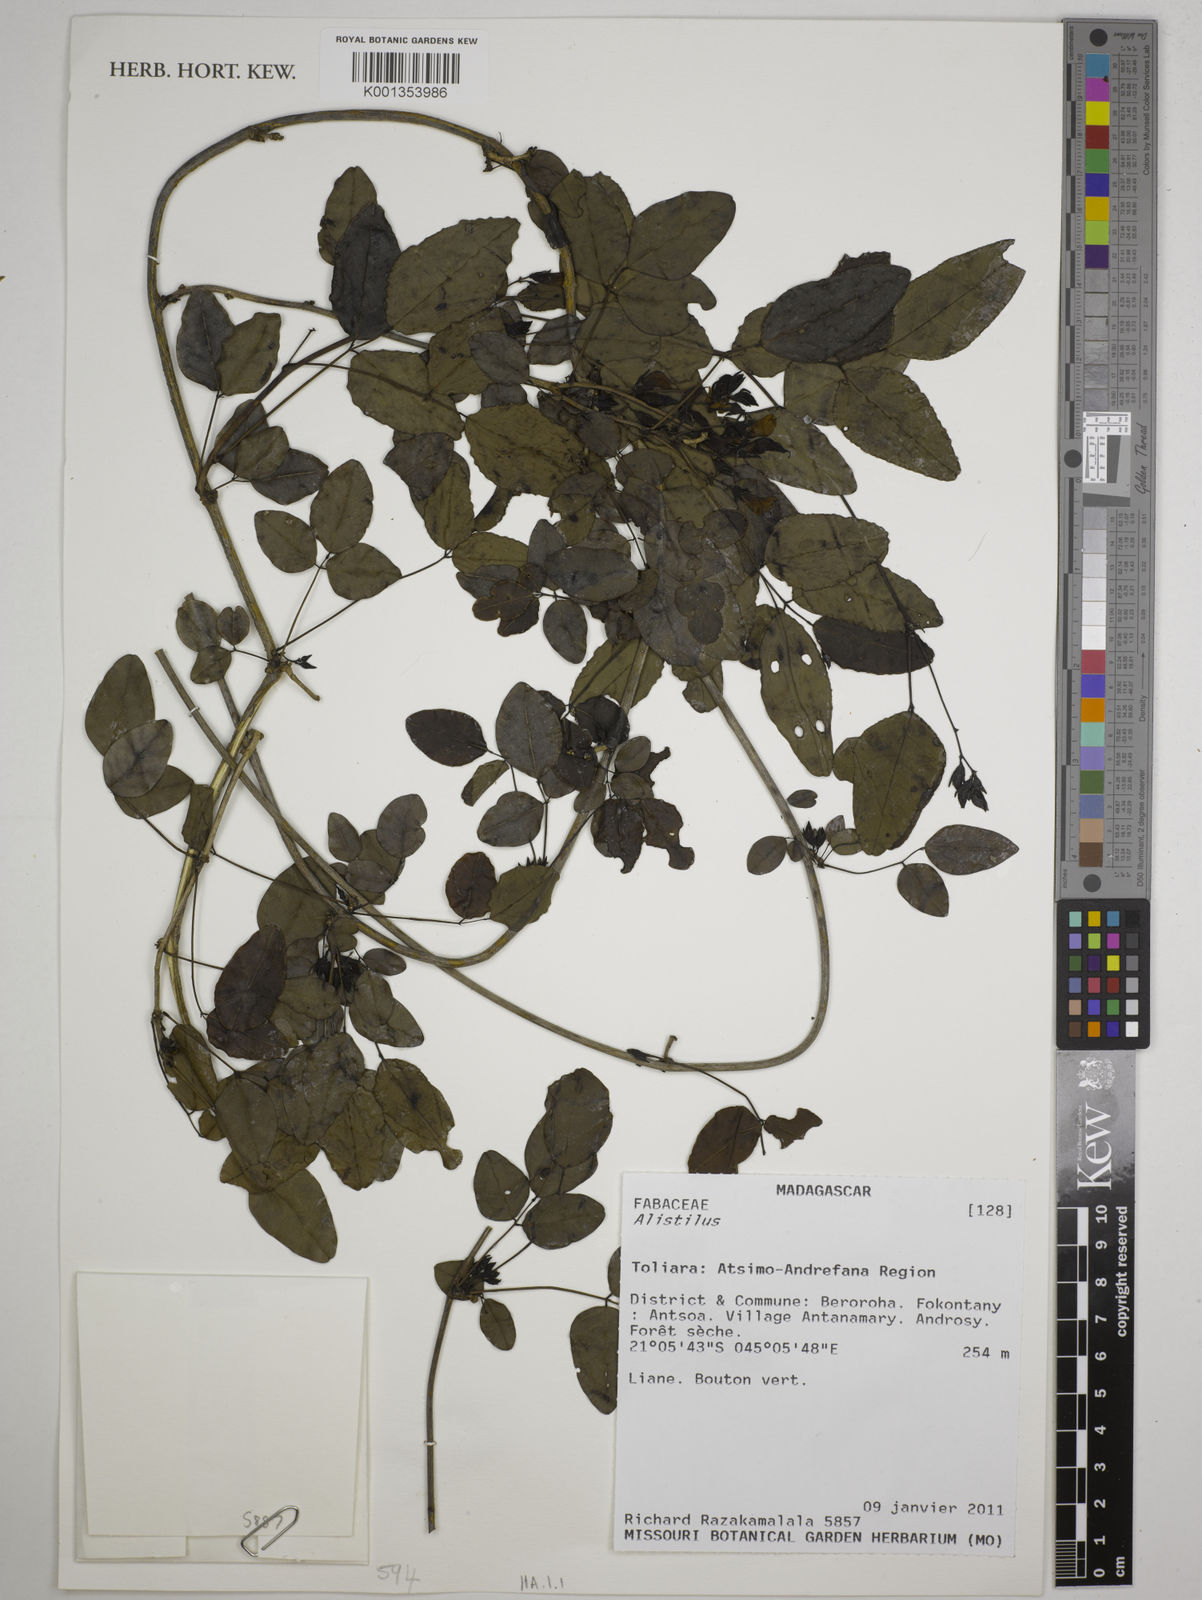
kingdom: Plantae
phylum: Tracheophyta
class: Magnoliopsida
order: Fabales
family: Fabaceae
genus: Alistilus
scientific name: Alistilus
